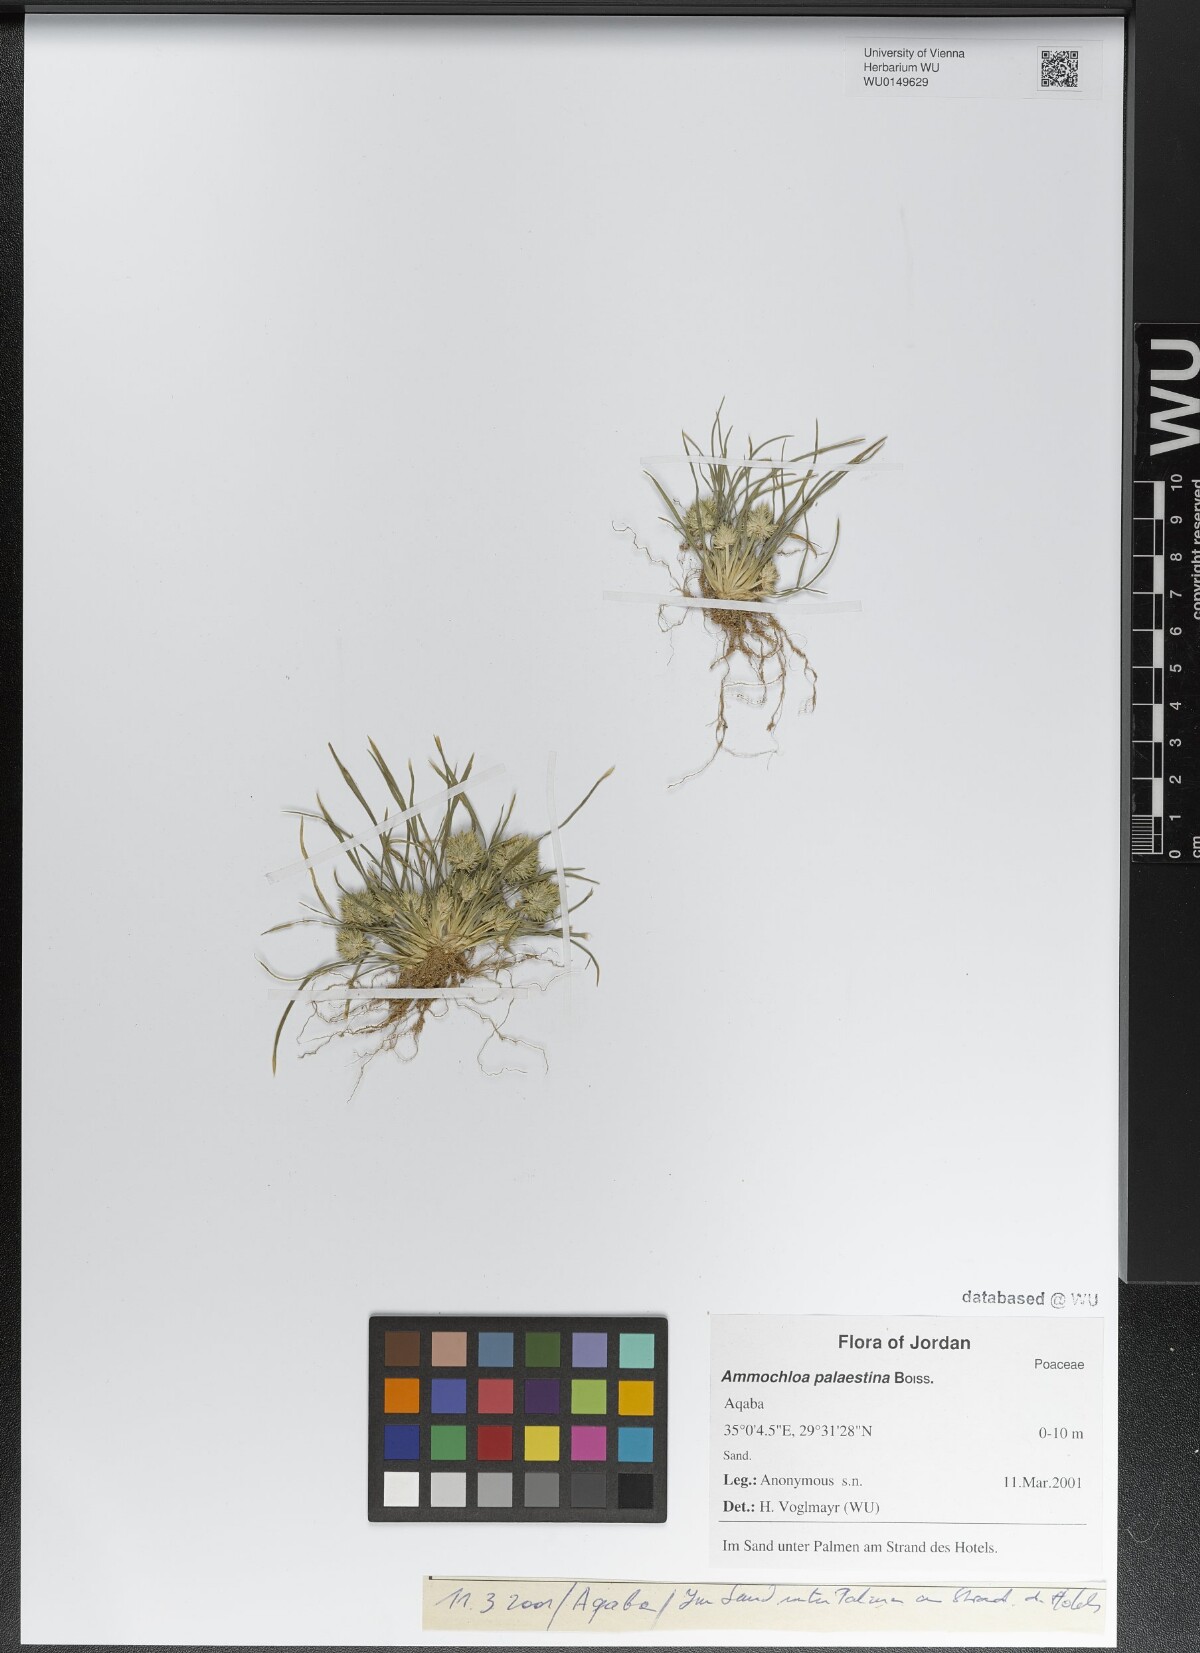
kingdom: Plantae
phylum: Tracheophyta
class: Liliopsida
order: Poales
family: Poaceae
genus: Ammochloa
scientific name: Ammochloa palaestina
